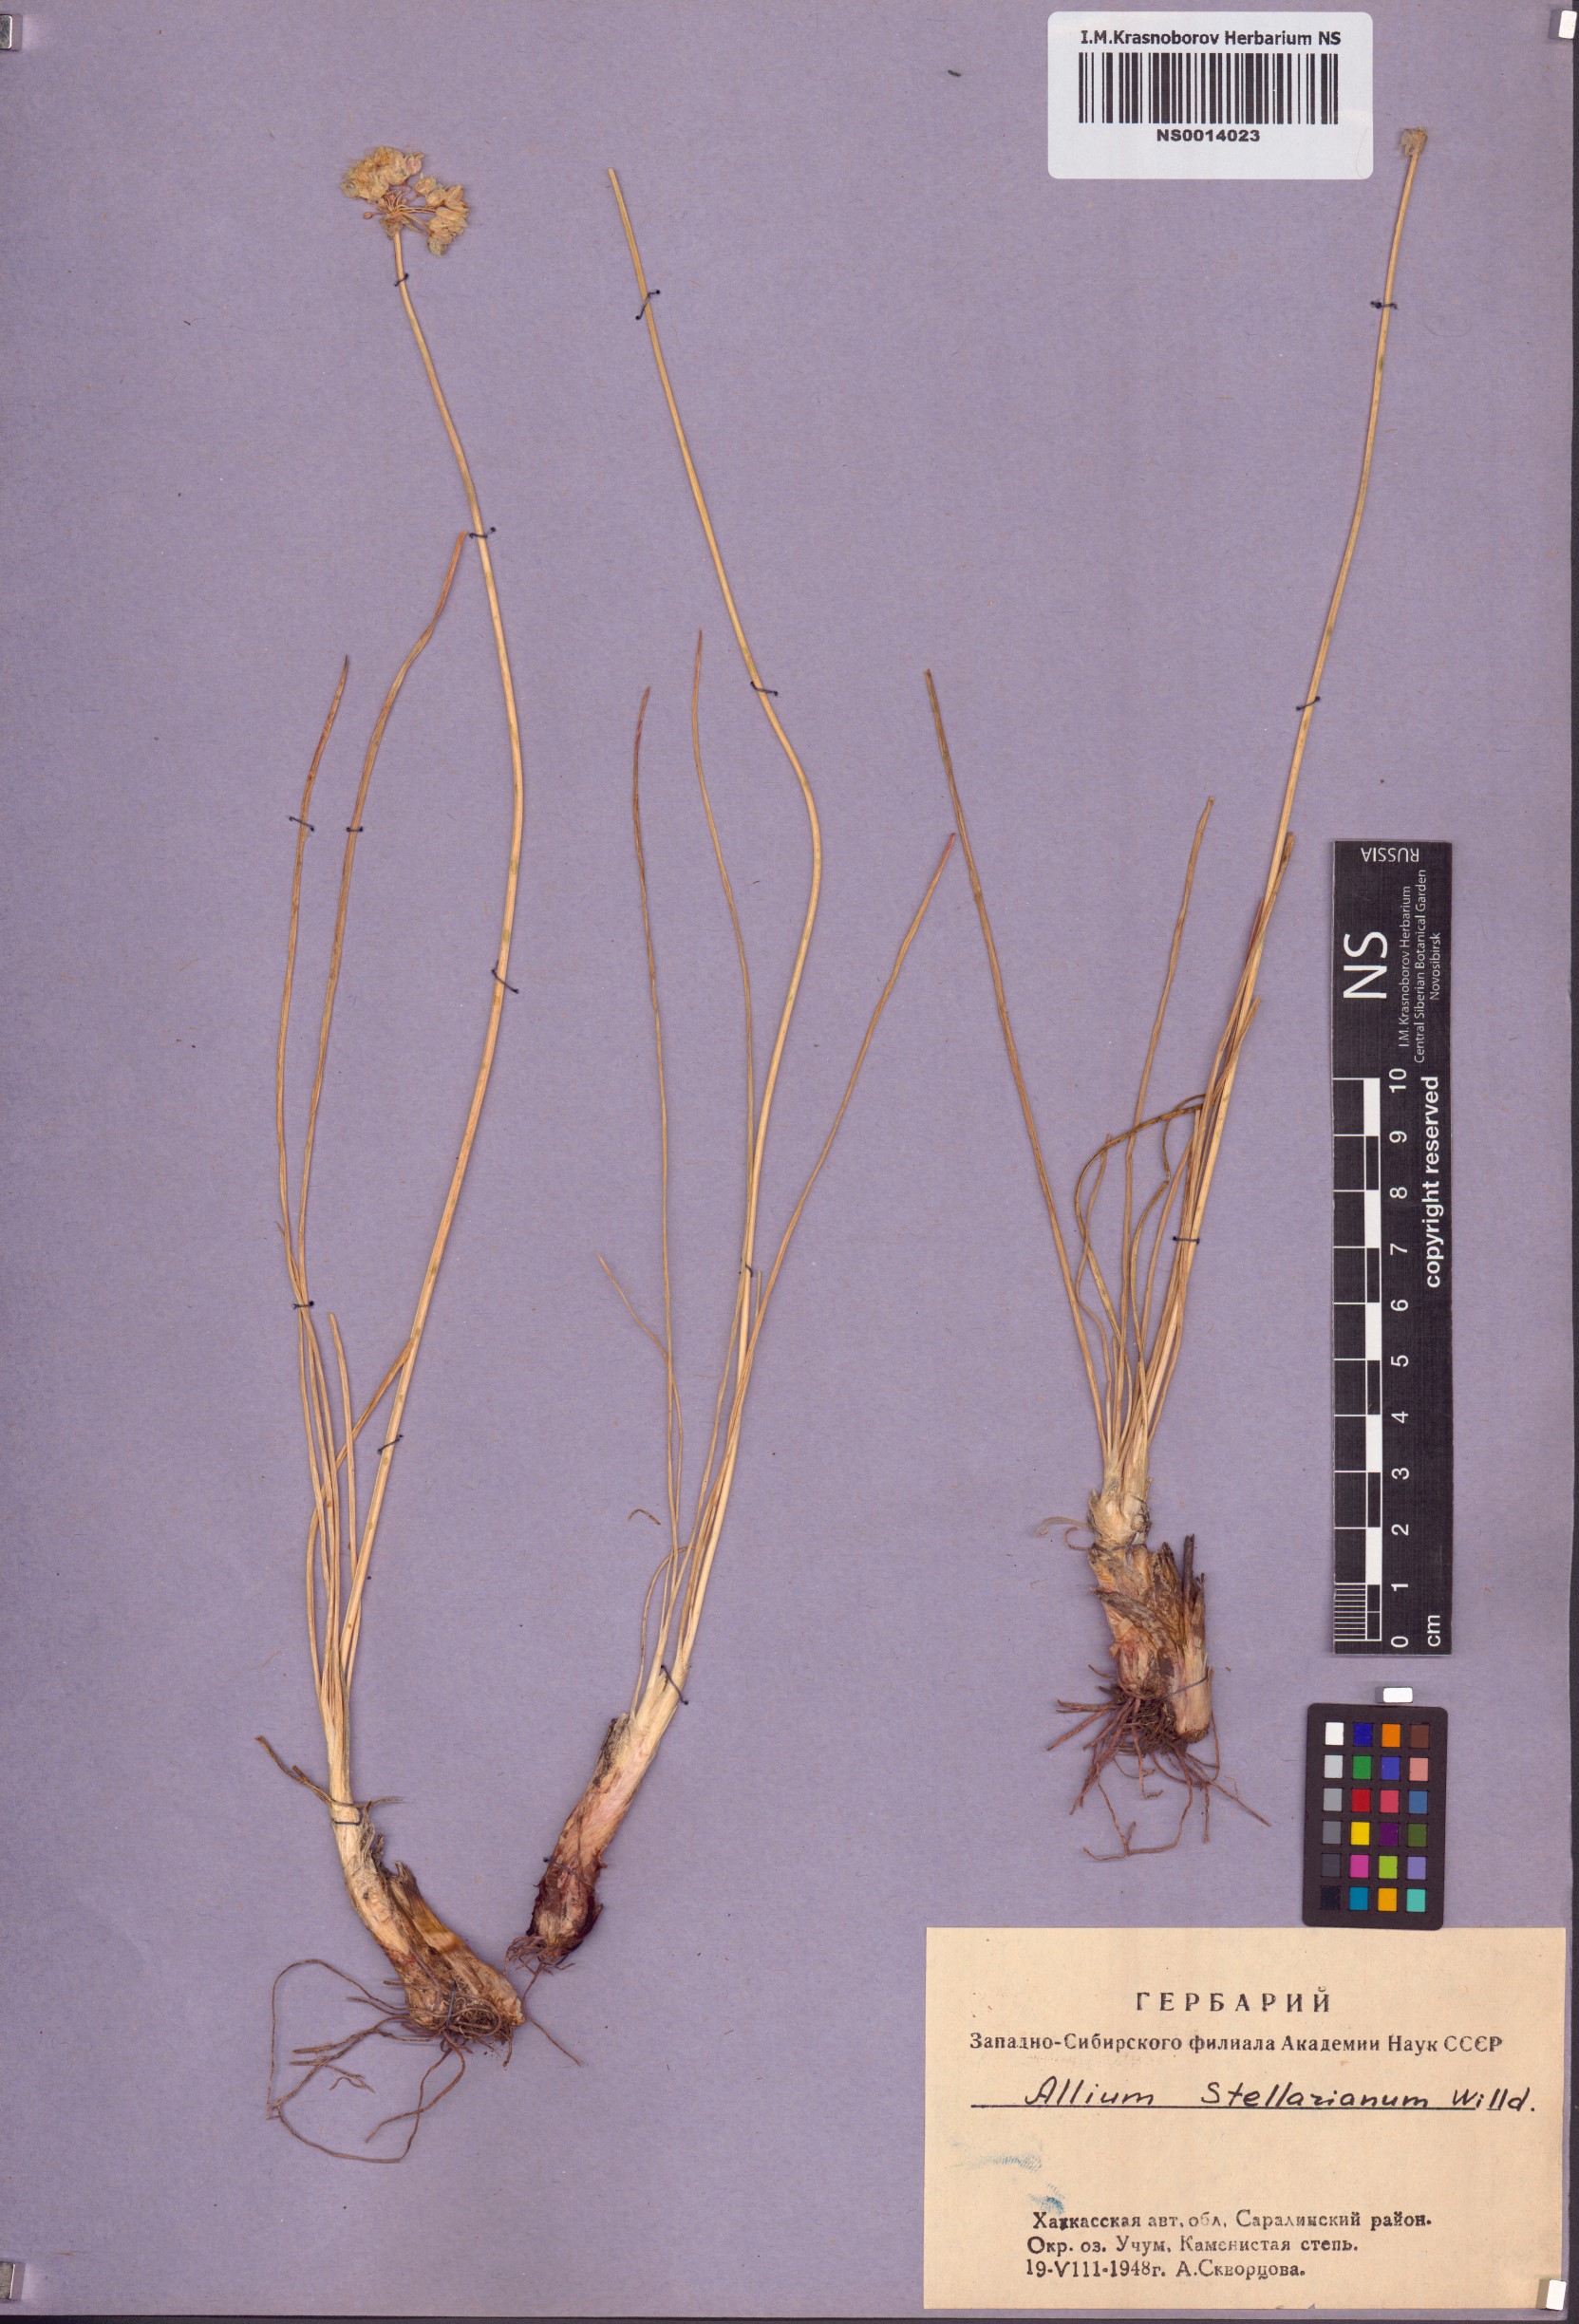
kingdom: Plantae
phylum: Tracheophyta
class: Liliopsida
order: Asparagales
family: Amaryllidaceae
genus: Allium
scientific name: Allium stellerianum
